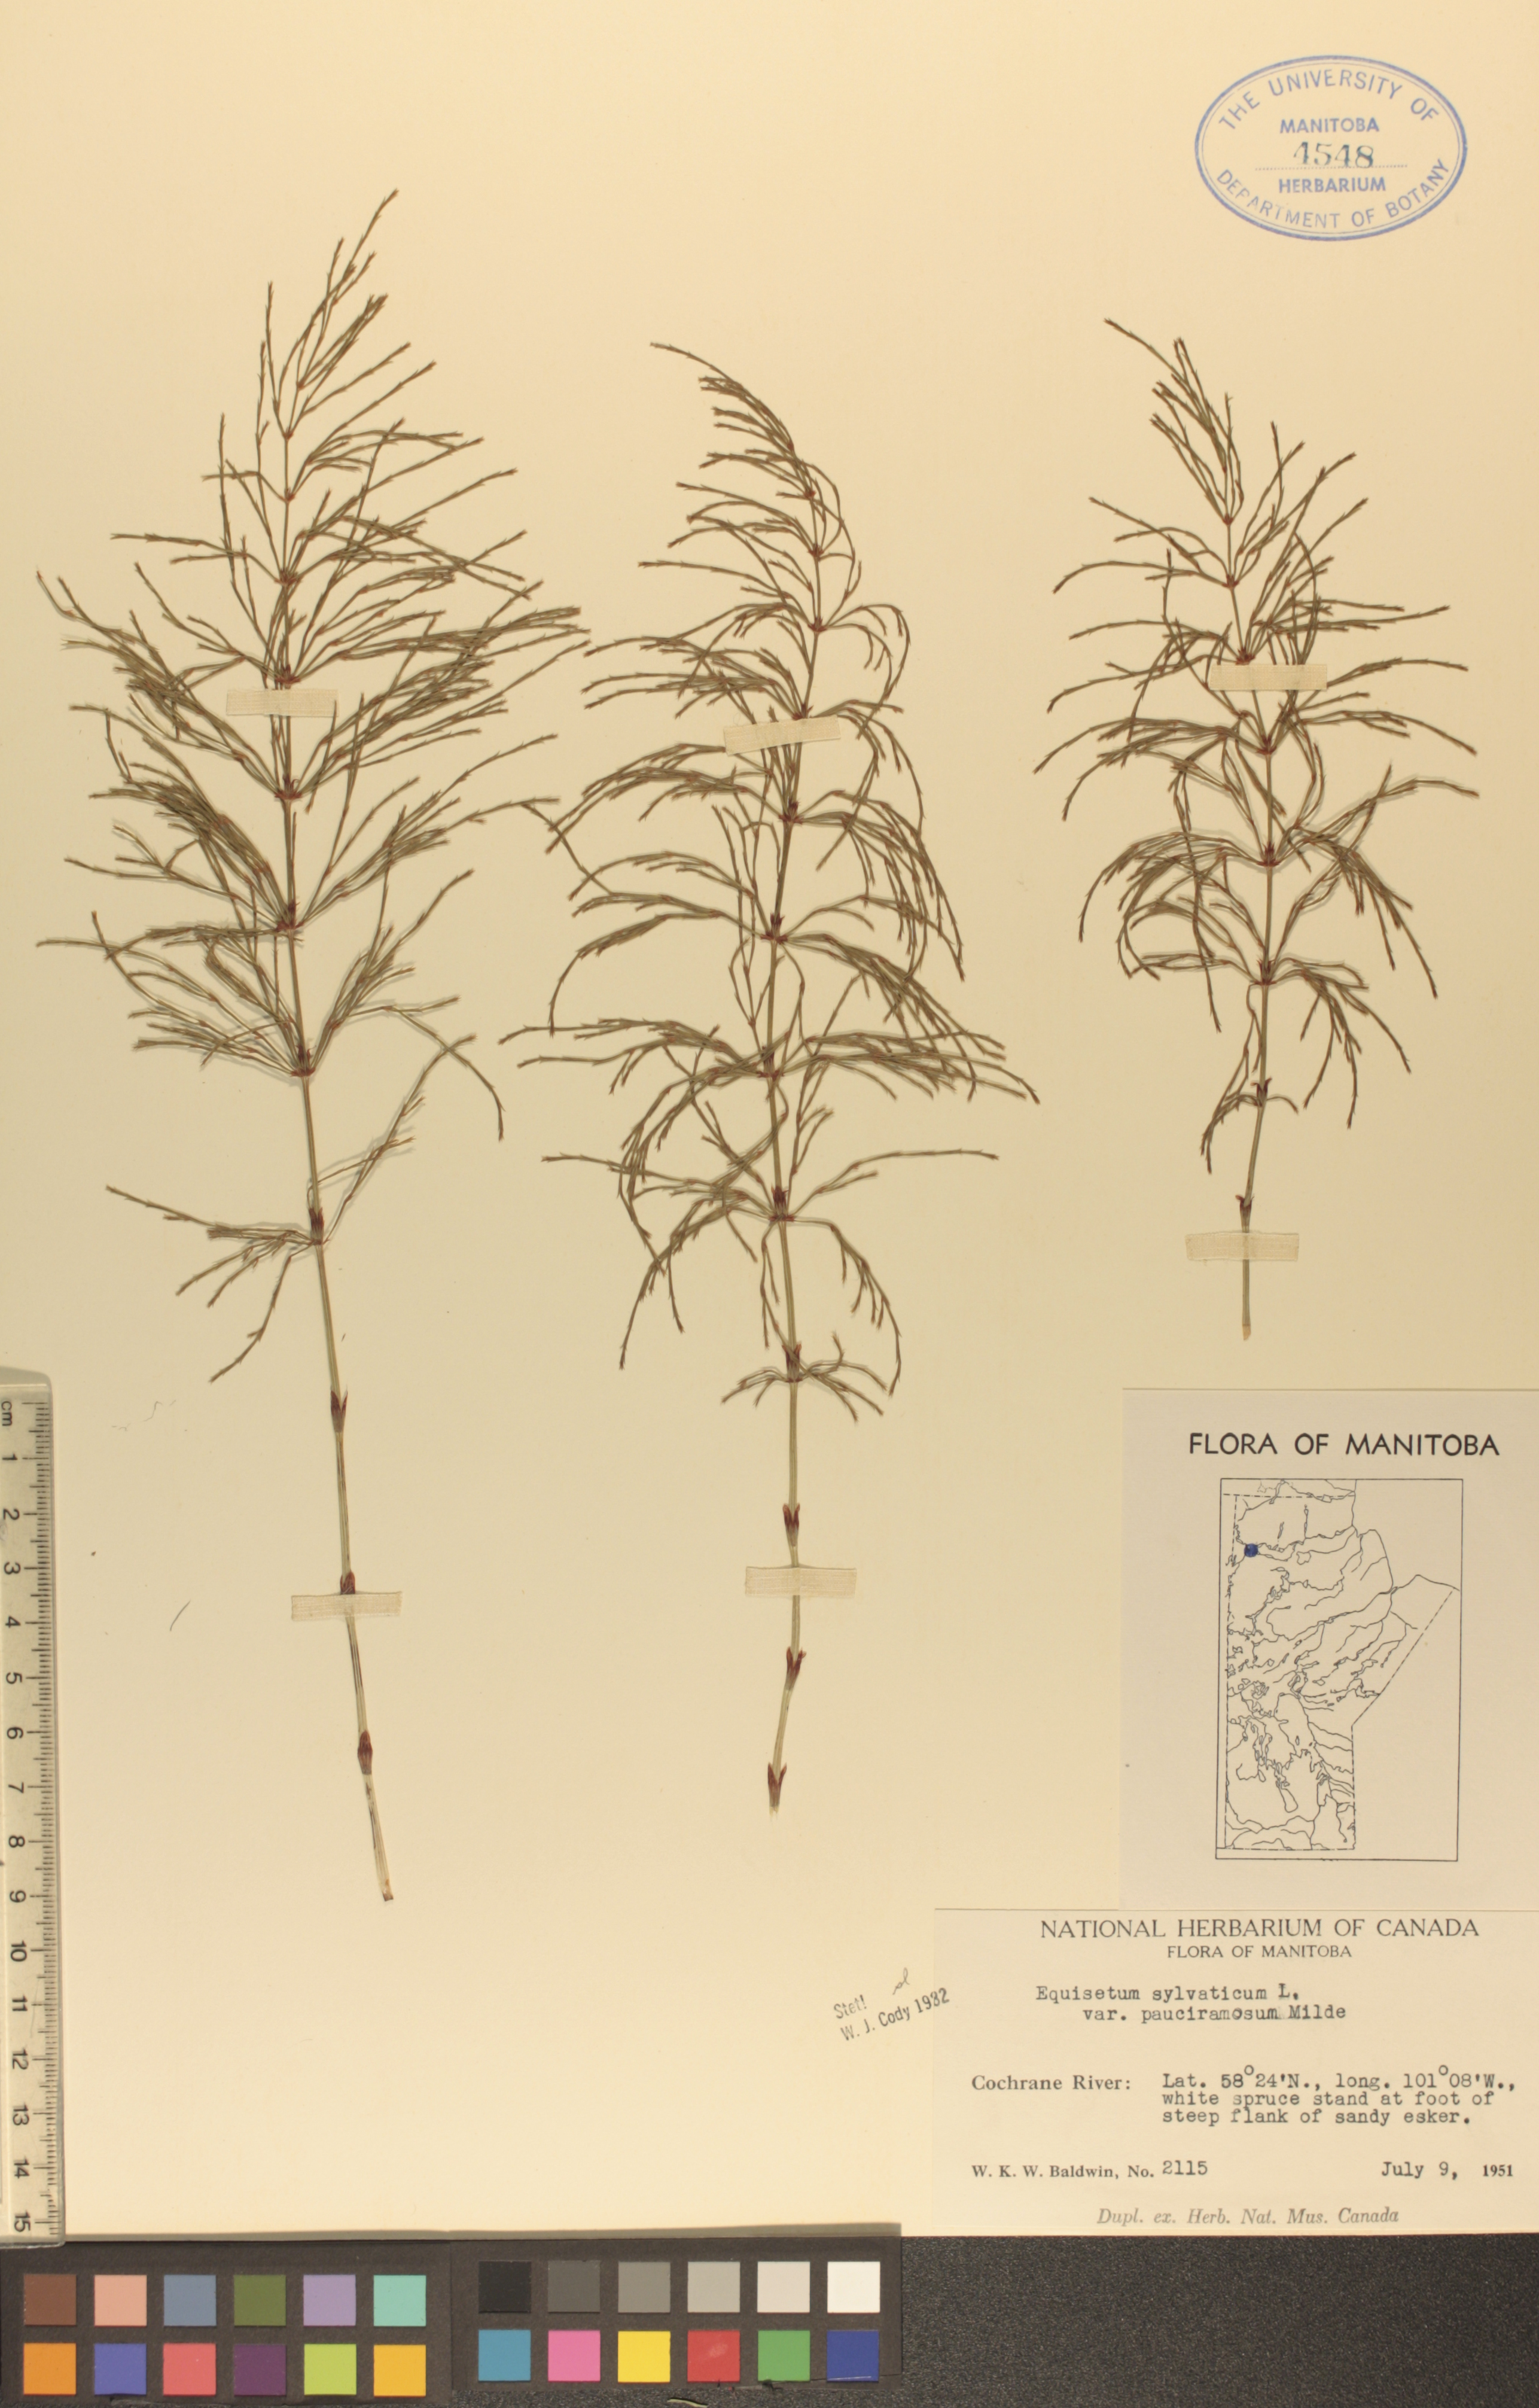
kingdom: Plantae
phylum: Tracheophyta
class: Polypodiopsida
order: Equisetales
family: Equisetaceae
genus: Equisetum
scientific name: Equisetum sylvaticum
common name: Wood horsetail
